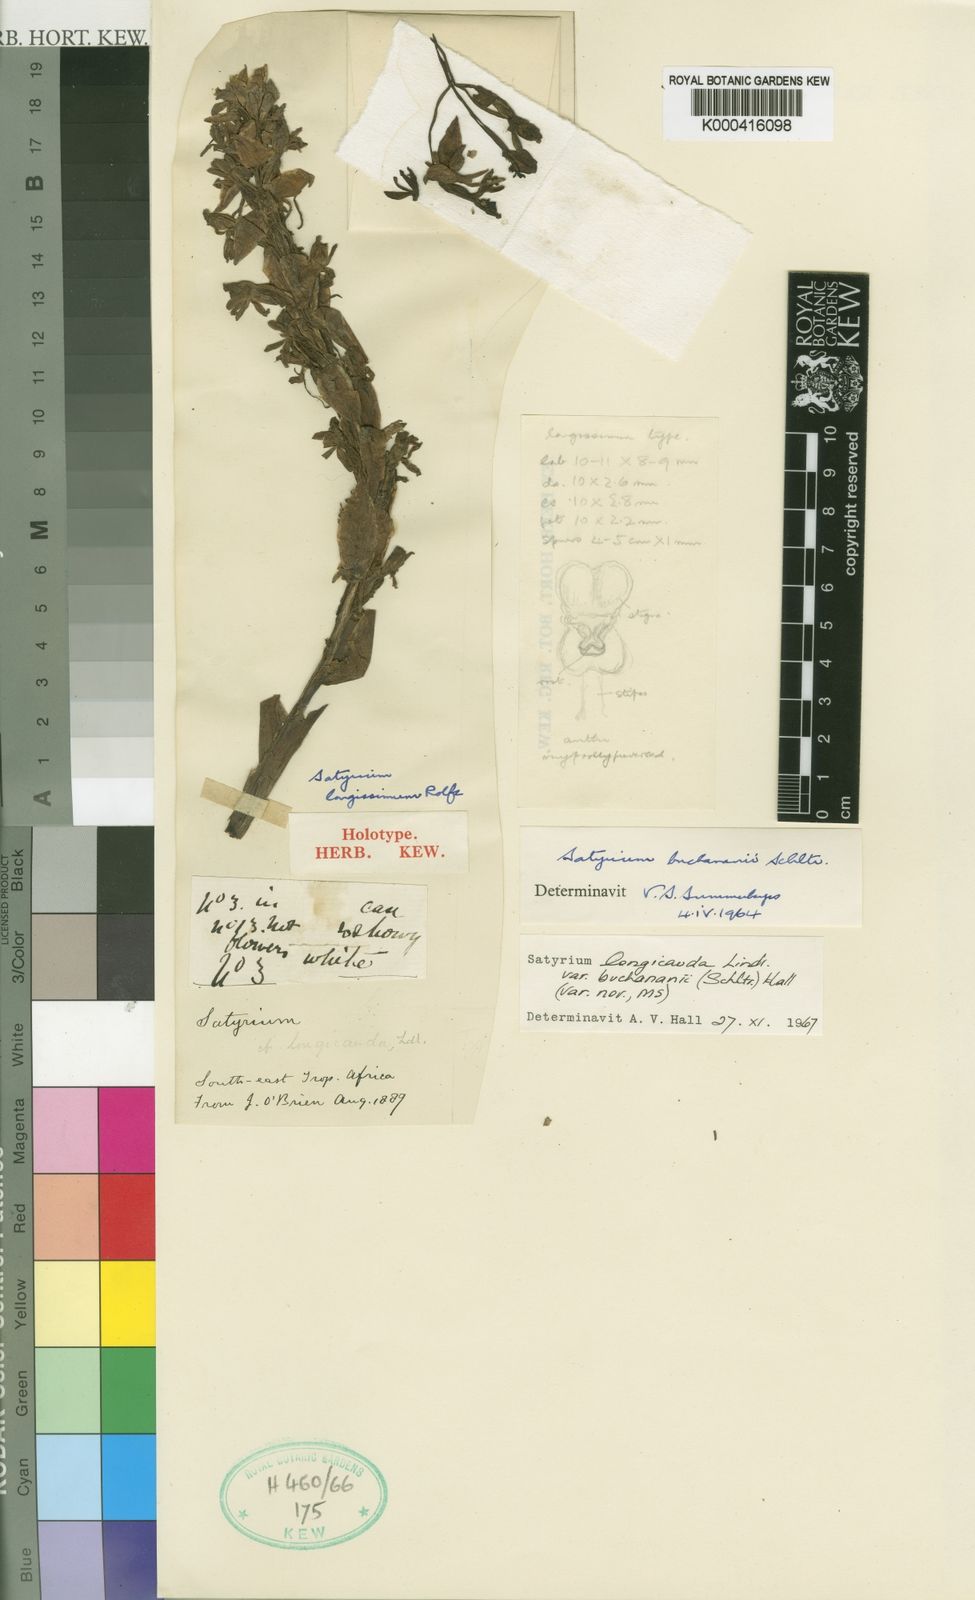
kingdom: Plantae
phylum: Tracheophyta
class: Liliopsida
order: Asparagales
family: Orchidaceae
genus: Satyrium
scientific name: Satyrium buchananii
